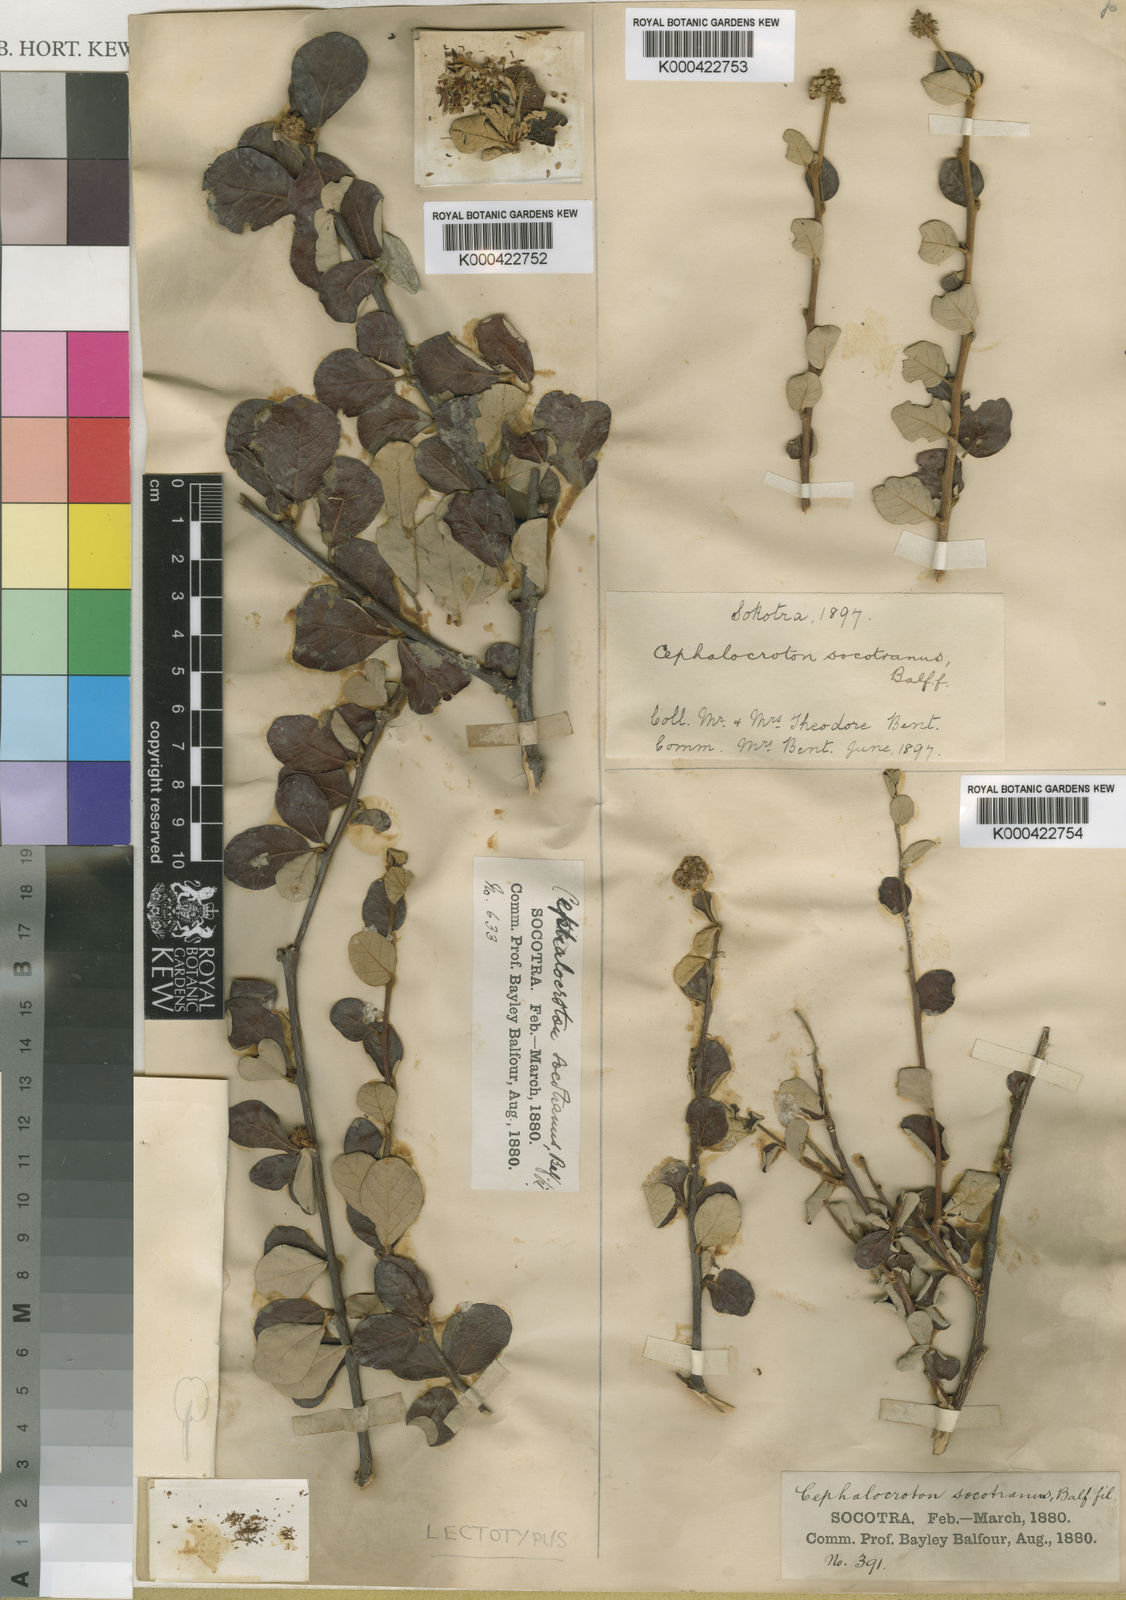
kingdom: Plantae
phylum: Tracheophyta
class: Magnoliopsida
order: Malpighiales
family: Euphorbiaceae
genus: Cephalocrotonopsis
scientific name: Cephalocrotonopsis socotranus
